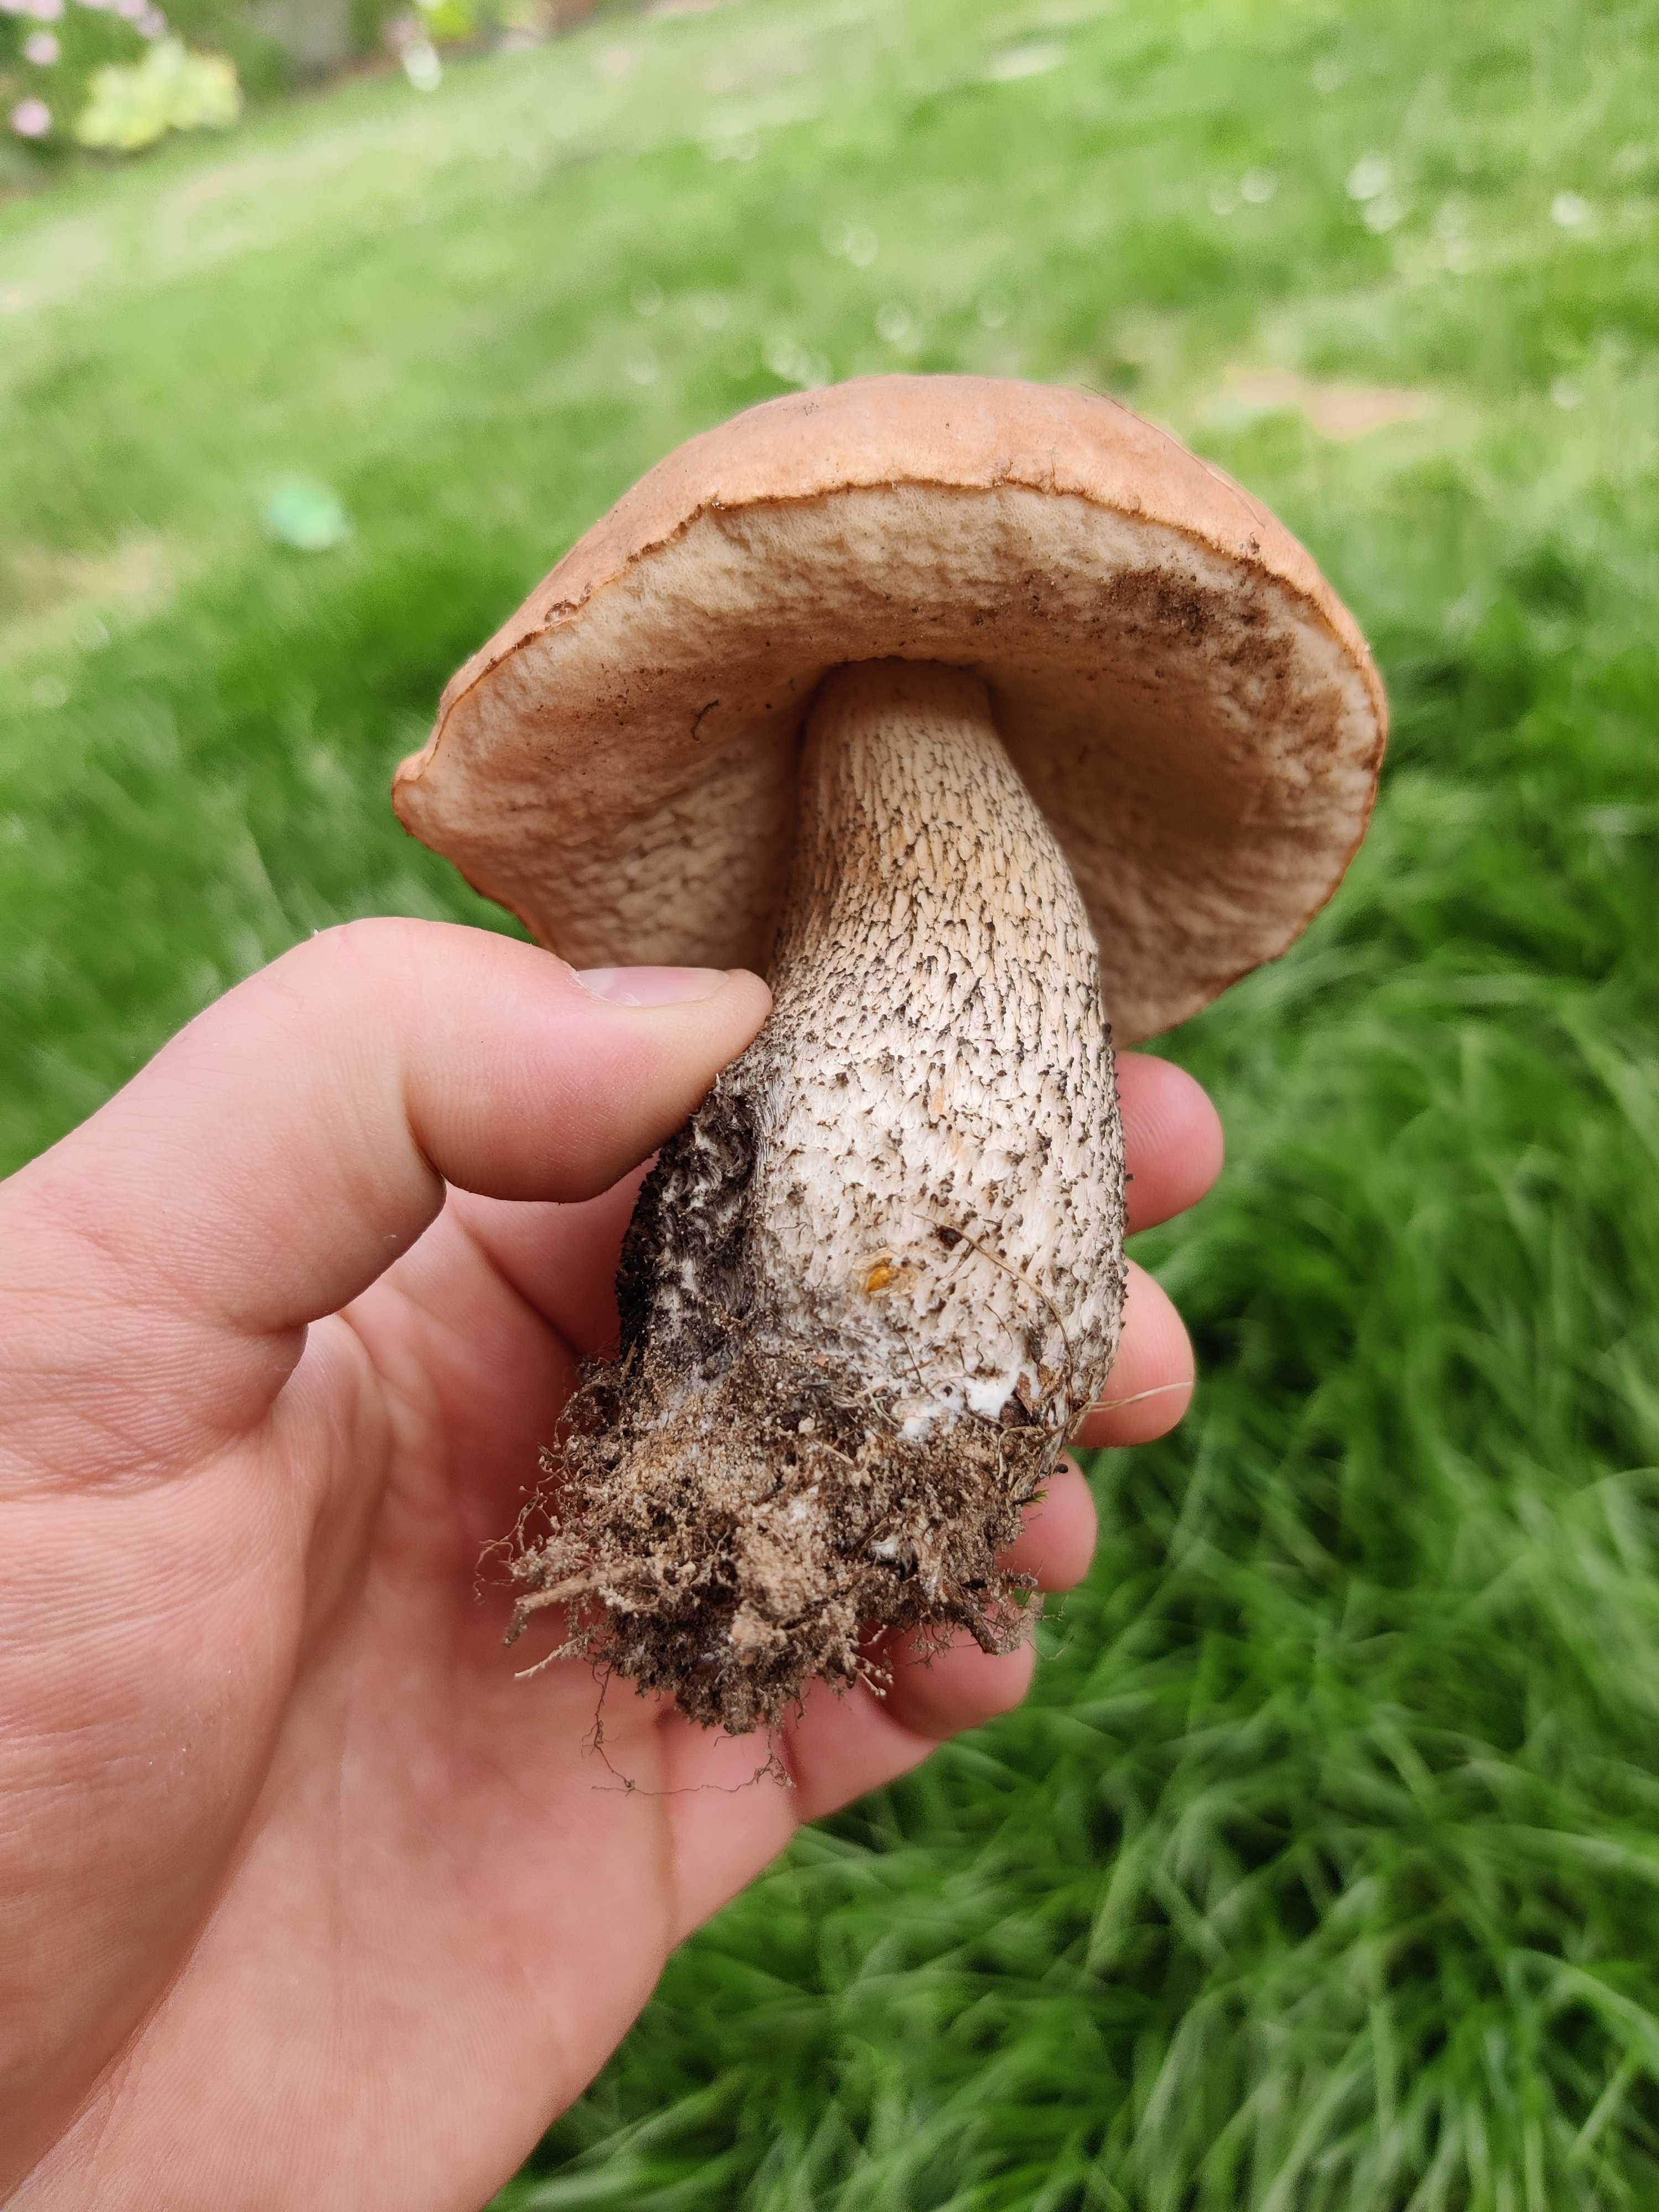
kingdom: Fungi
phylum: Basidiomycota
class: Agaricomycetes
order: Boletales
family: Boletaceae
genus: Leccinum
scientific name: Leccinum scabrum
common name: brun skælrørhat
